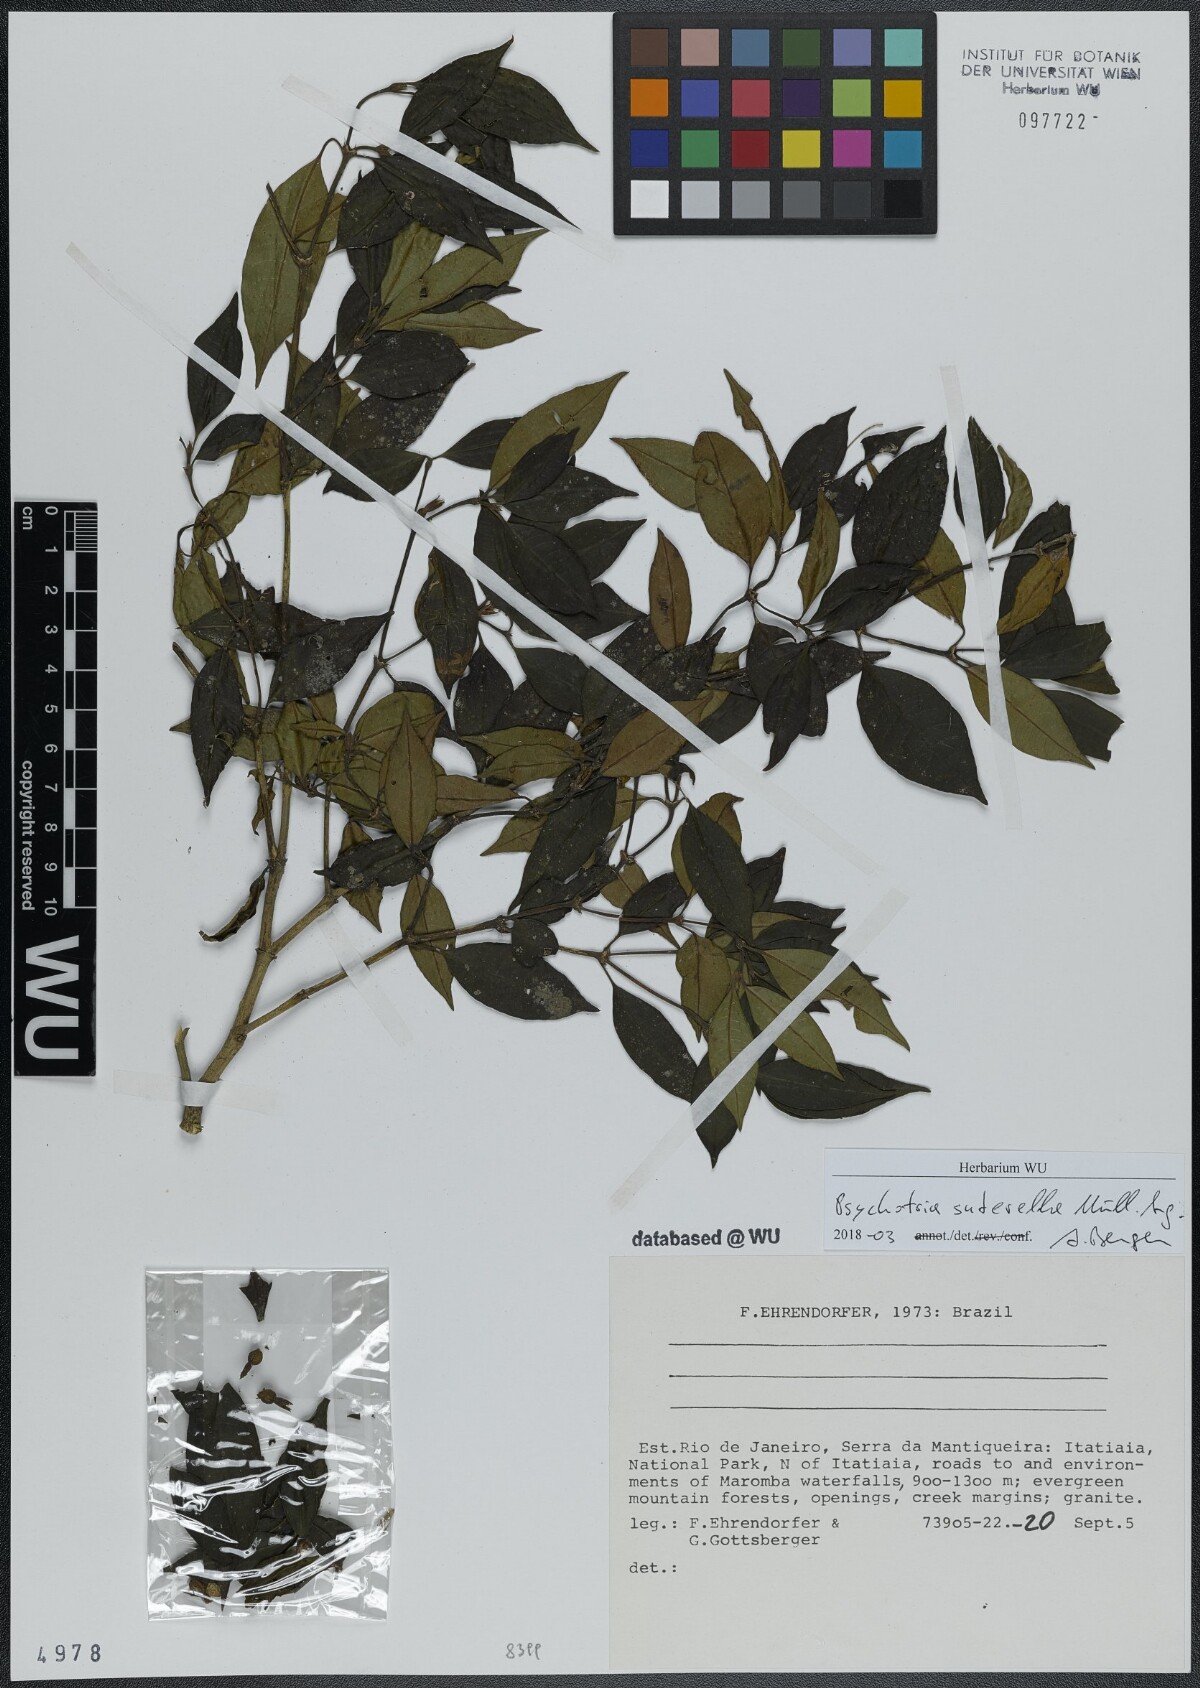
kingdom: Plantae
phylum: Tracheophyta
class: Magnoliopsida
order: Gentianales
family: Rubiaceae
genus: Psychotria
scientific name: Psychotria suterella
